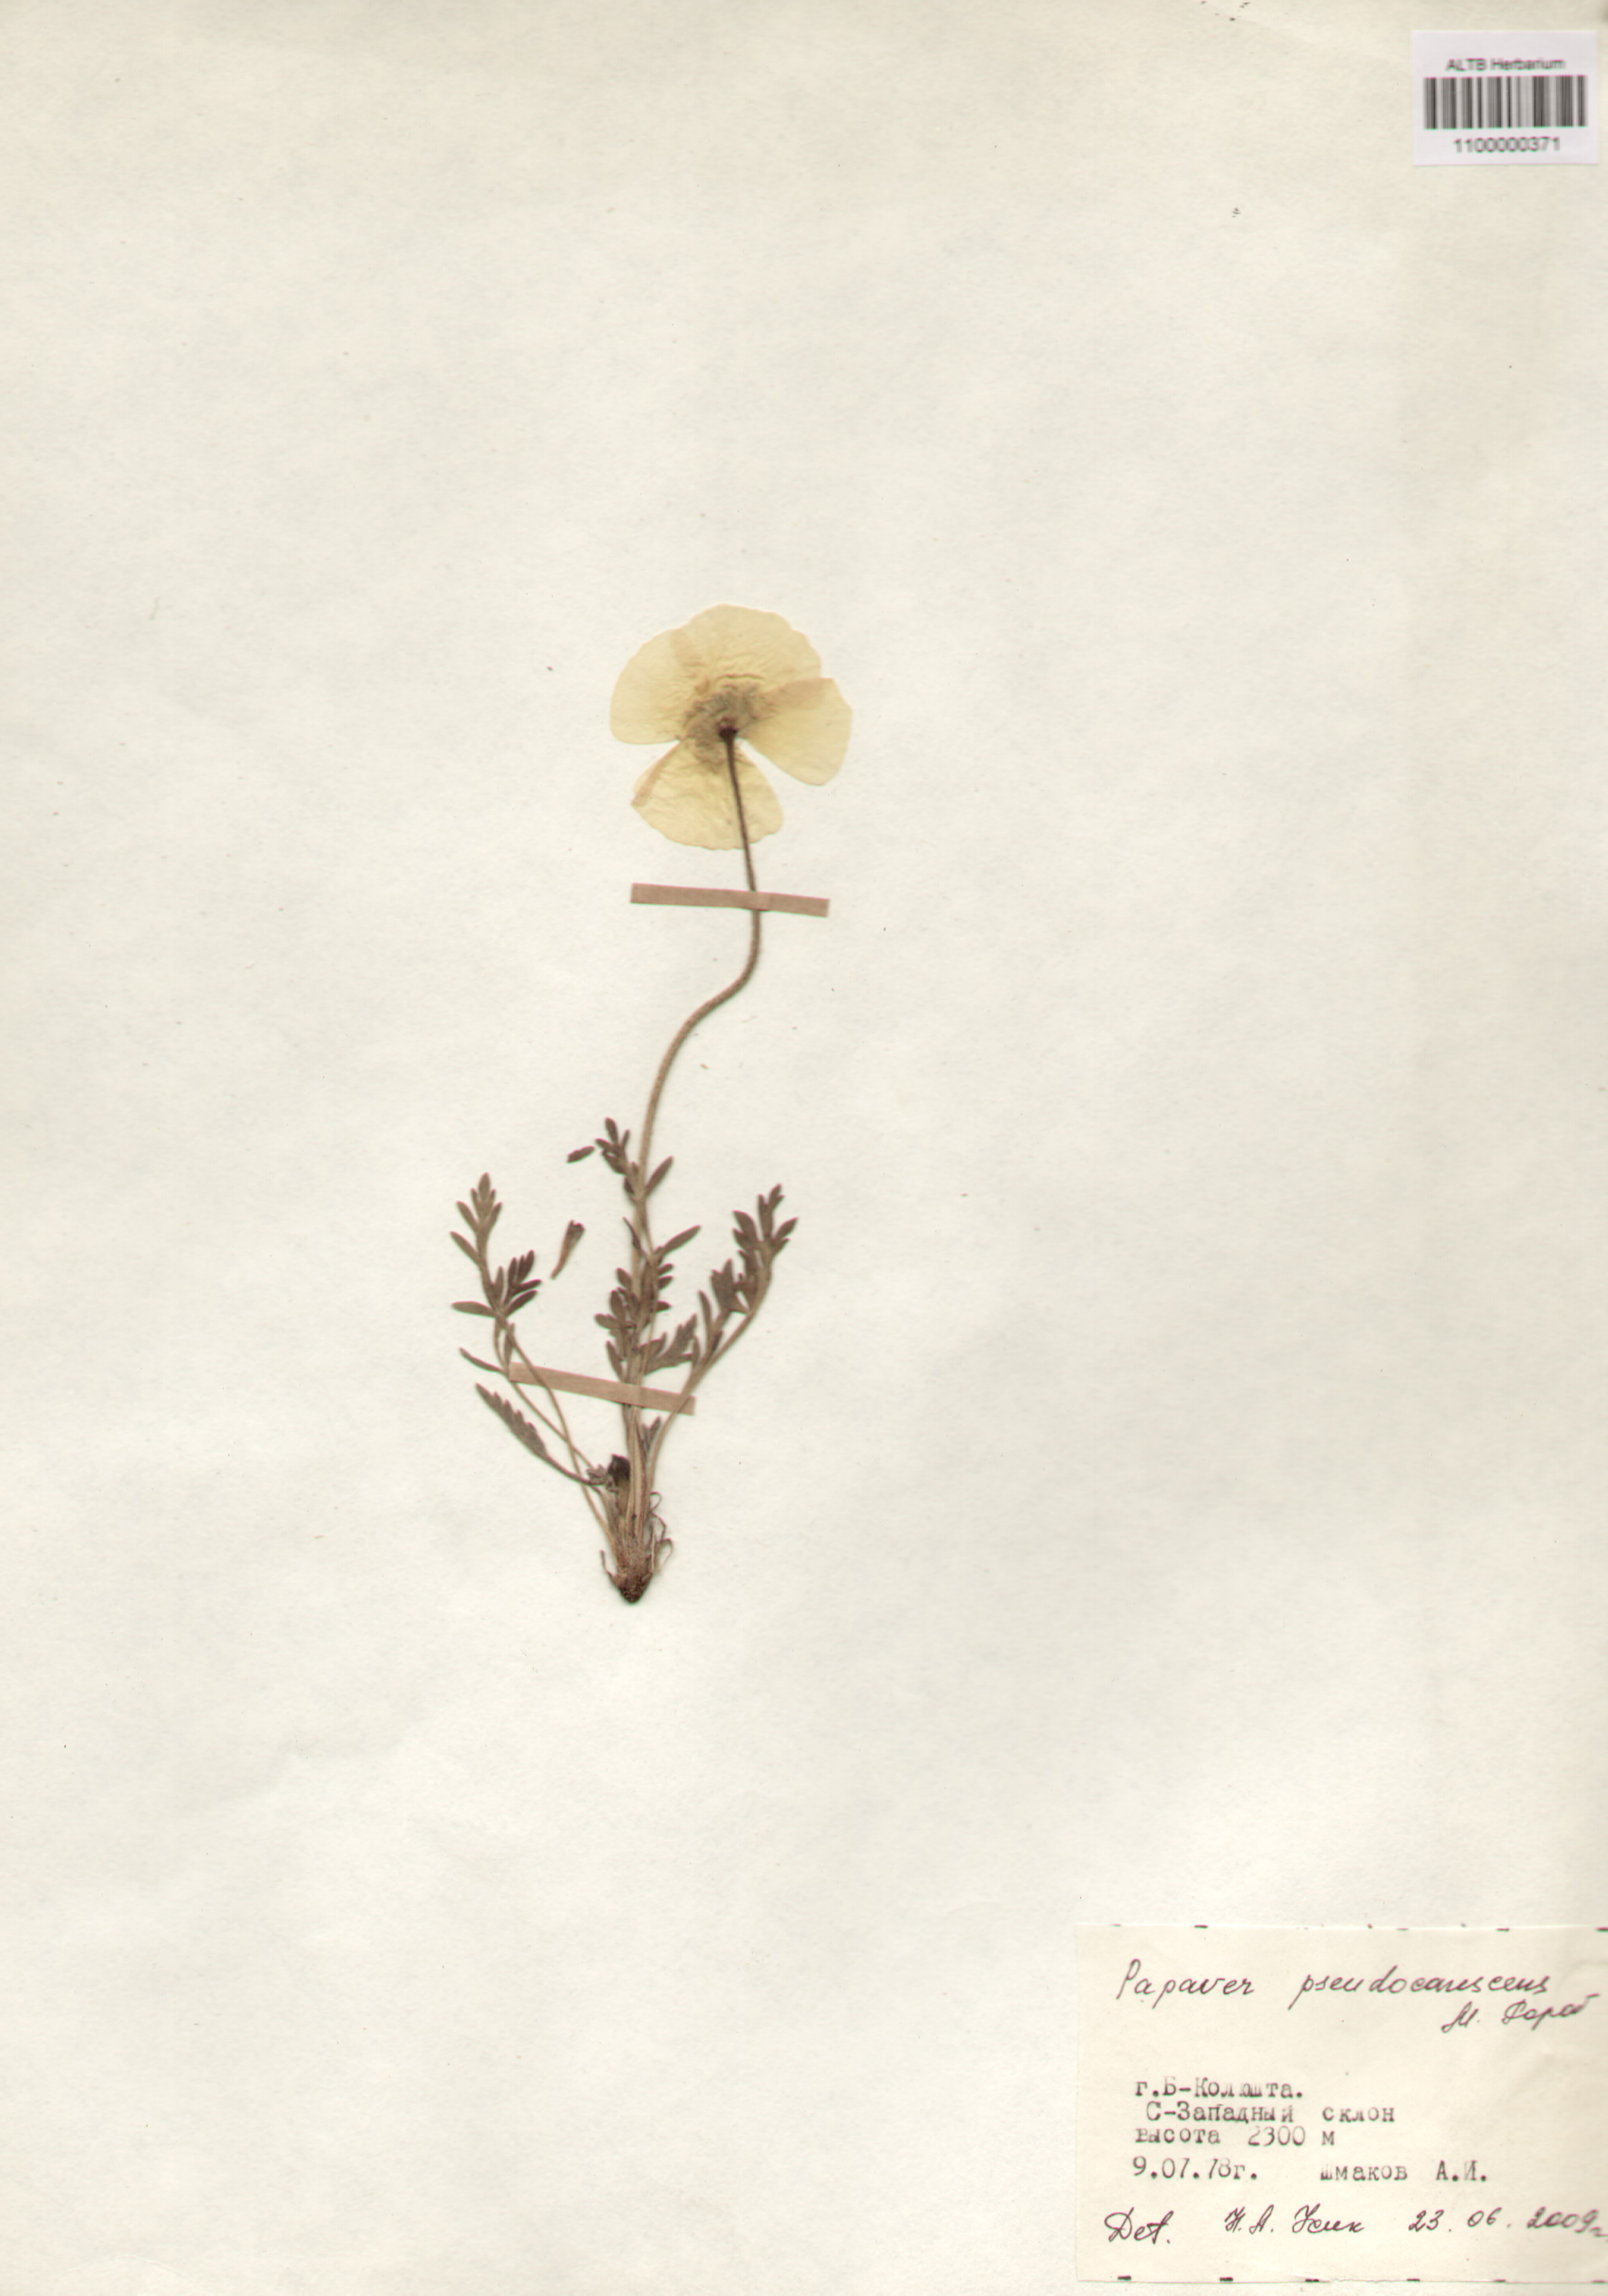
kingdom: Plantae
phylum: Tracheophyta
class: Magnoliopsida
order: Ranunculales
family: Papaveraceae
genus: Papaver
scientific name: Papaver canescens
